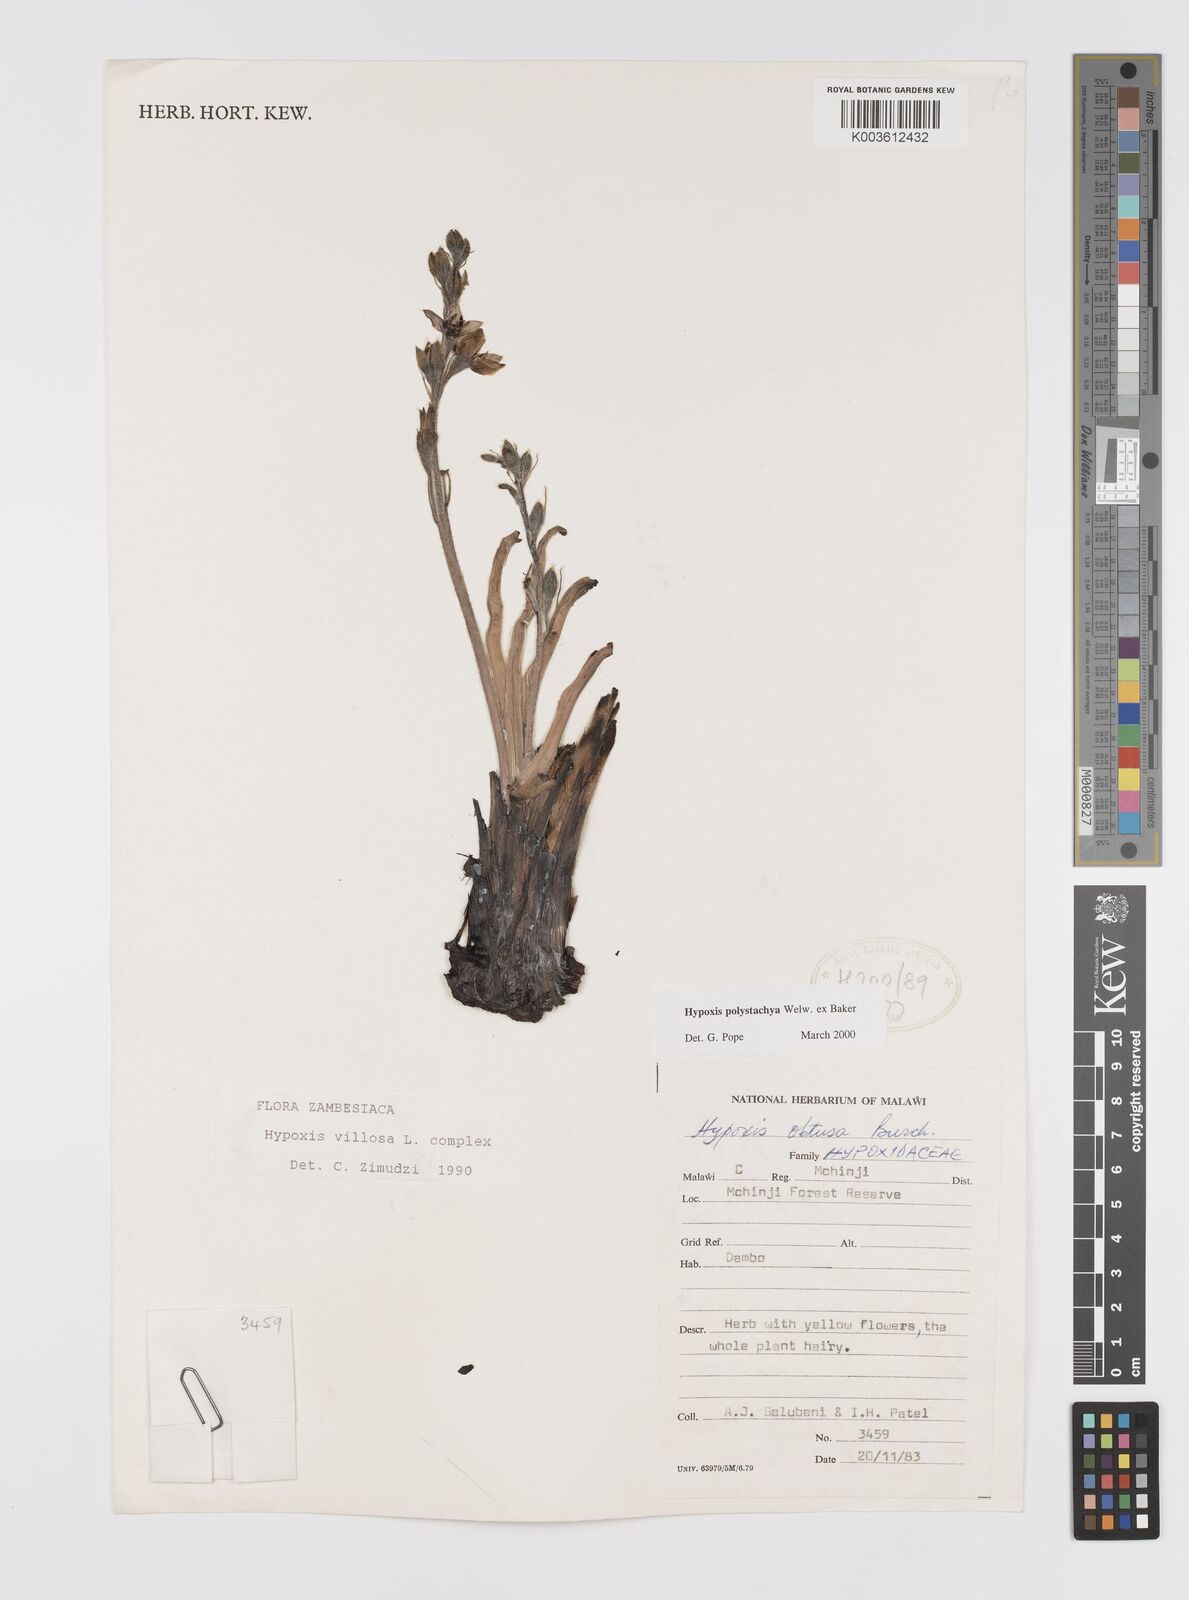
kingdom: Plantae
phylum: Tracheophyta
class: Liliopsida
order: Asparagales
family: Hypoxidaceae
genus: Hypoxis
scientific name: Hypoxis polystachya
